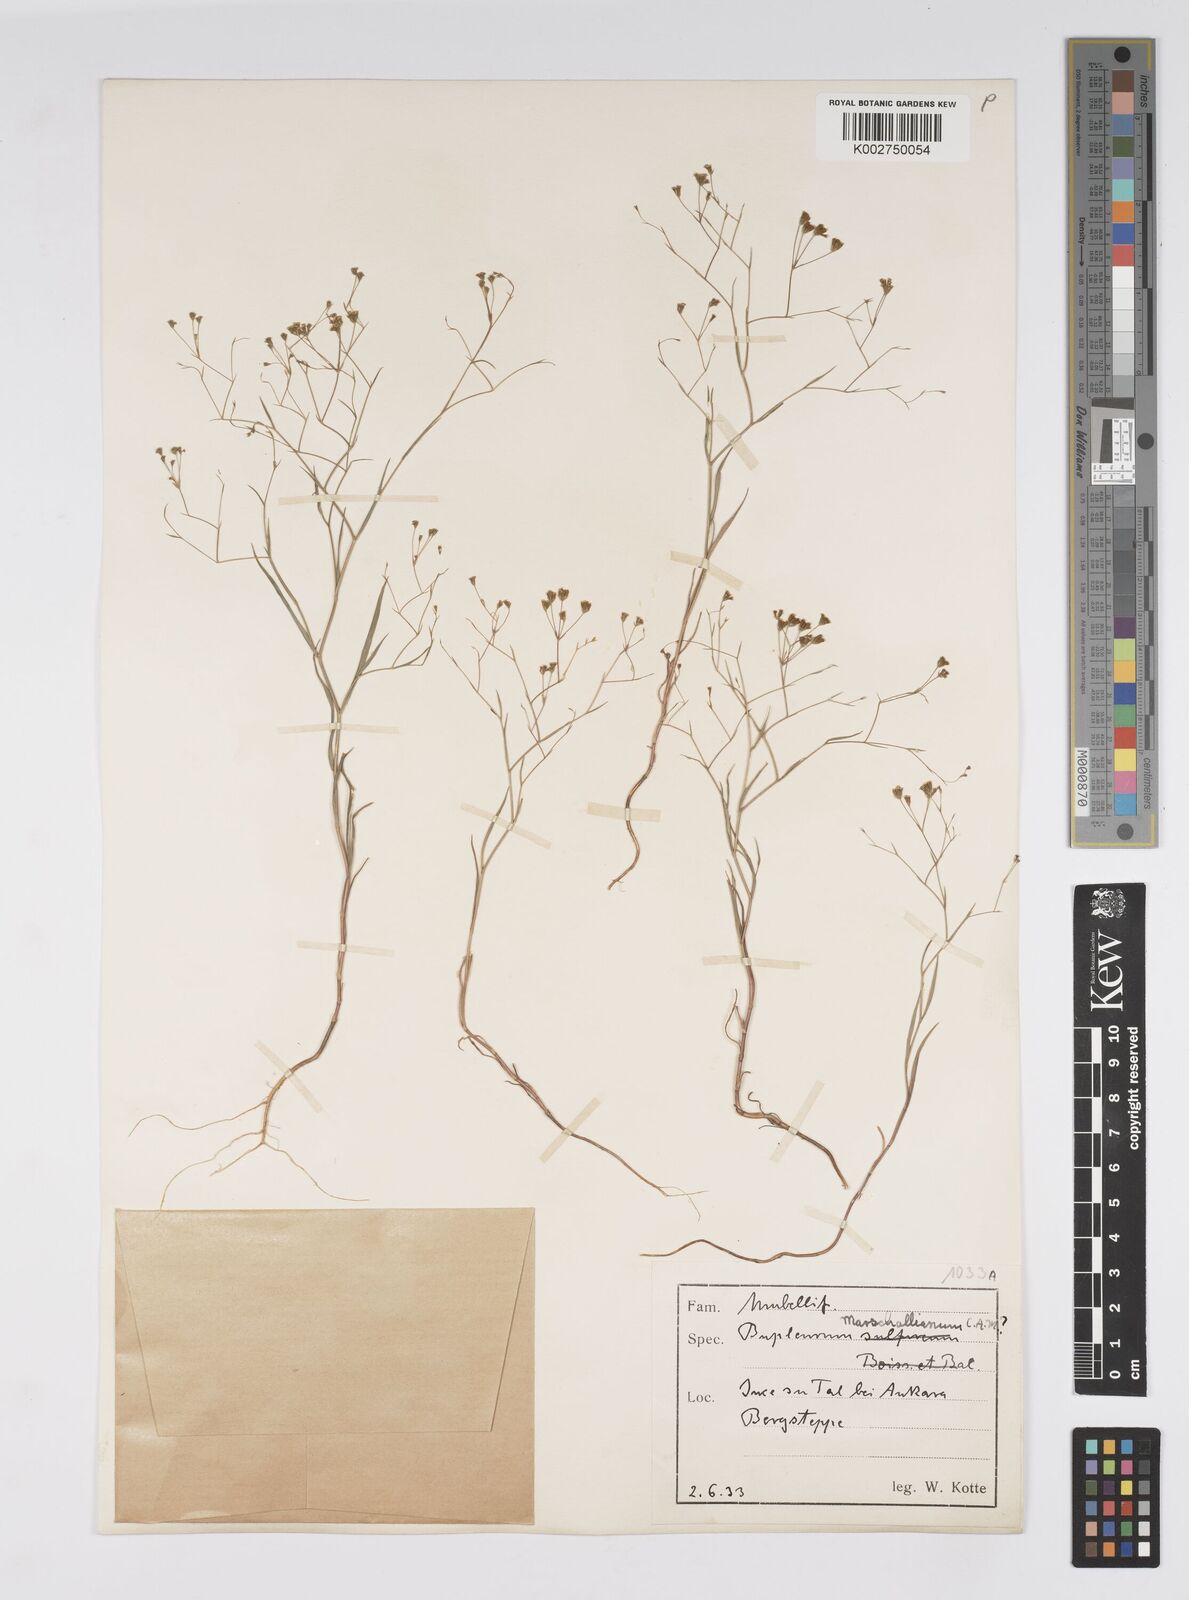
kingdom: Plantae
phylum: Tracheophyta
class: Magnoliopsida
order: Apiales
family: Apiaceae
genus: Bupleurum
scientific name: Bupleurum
